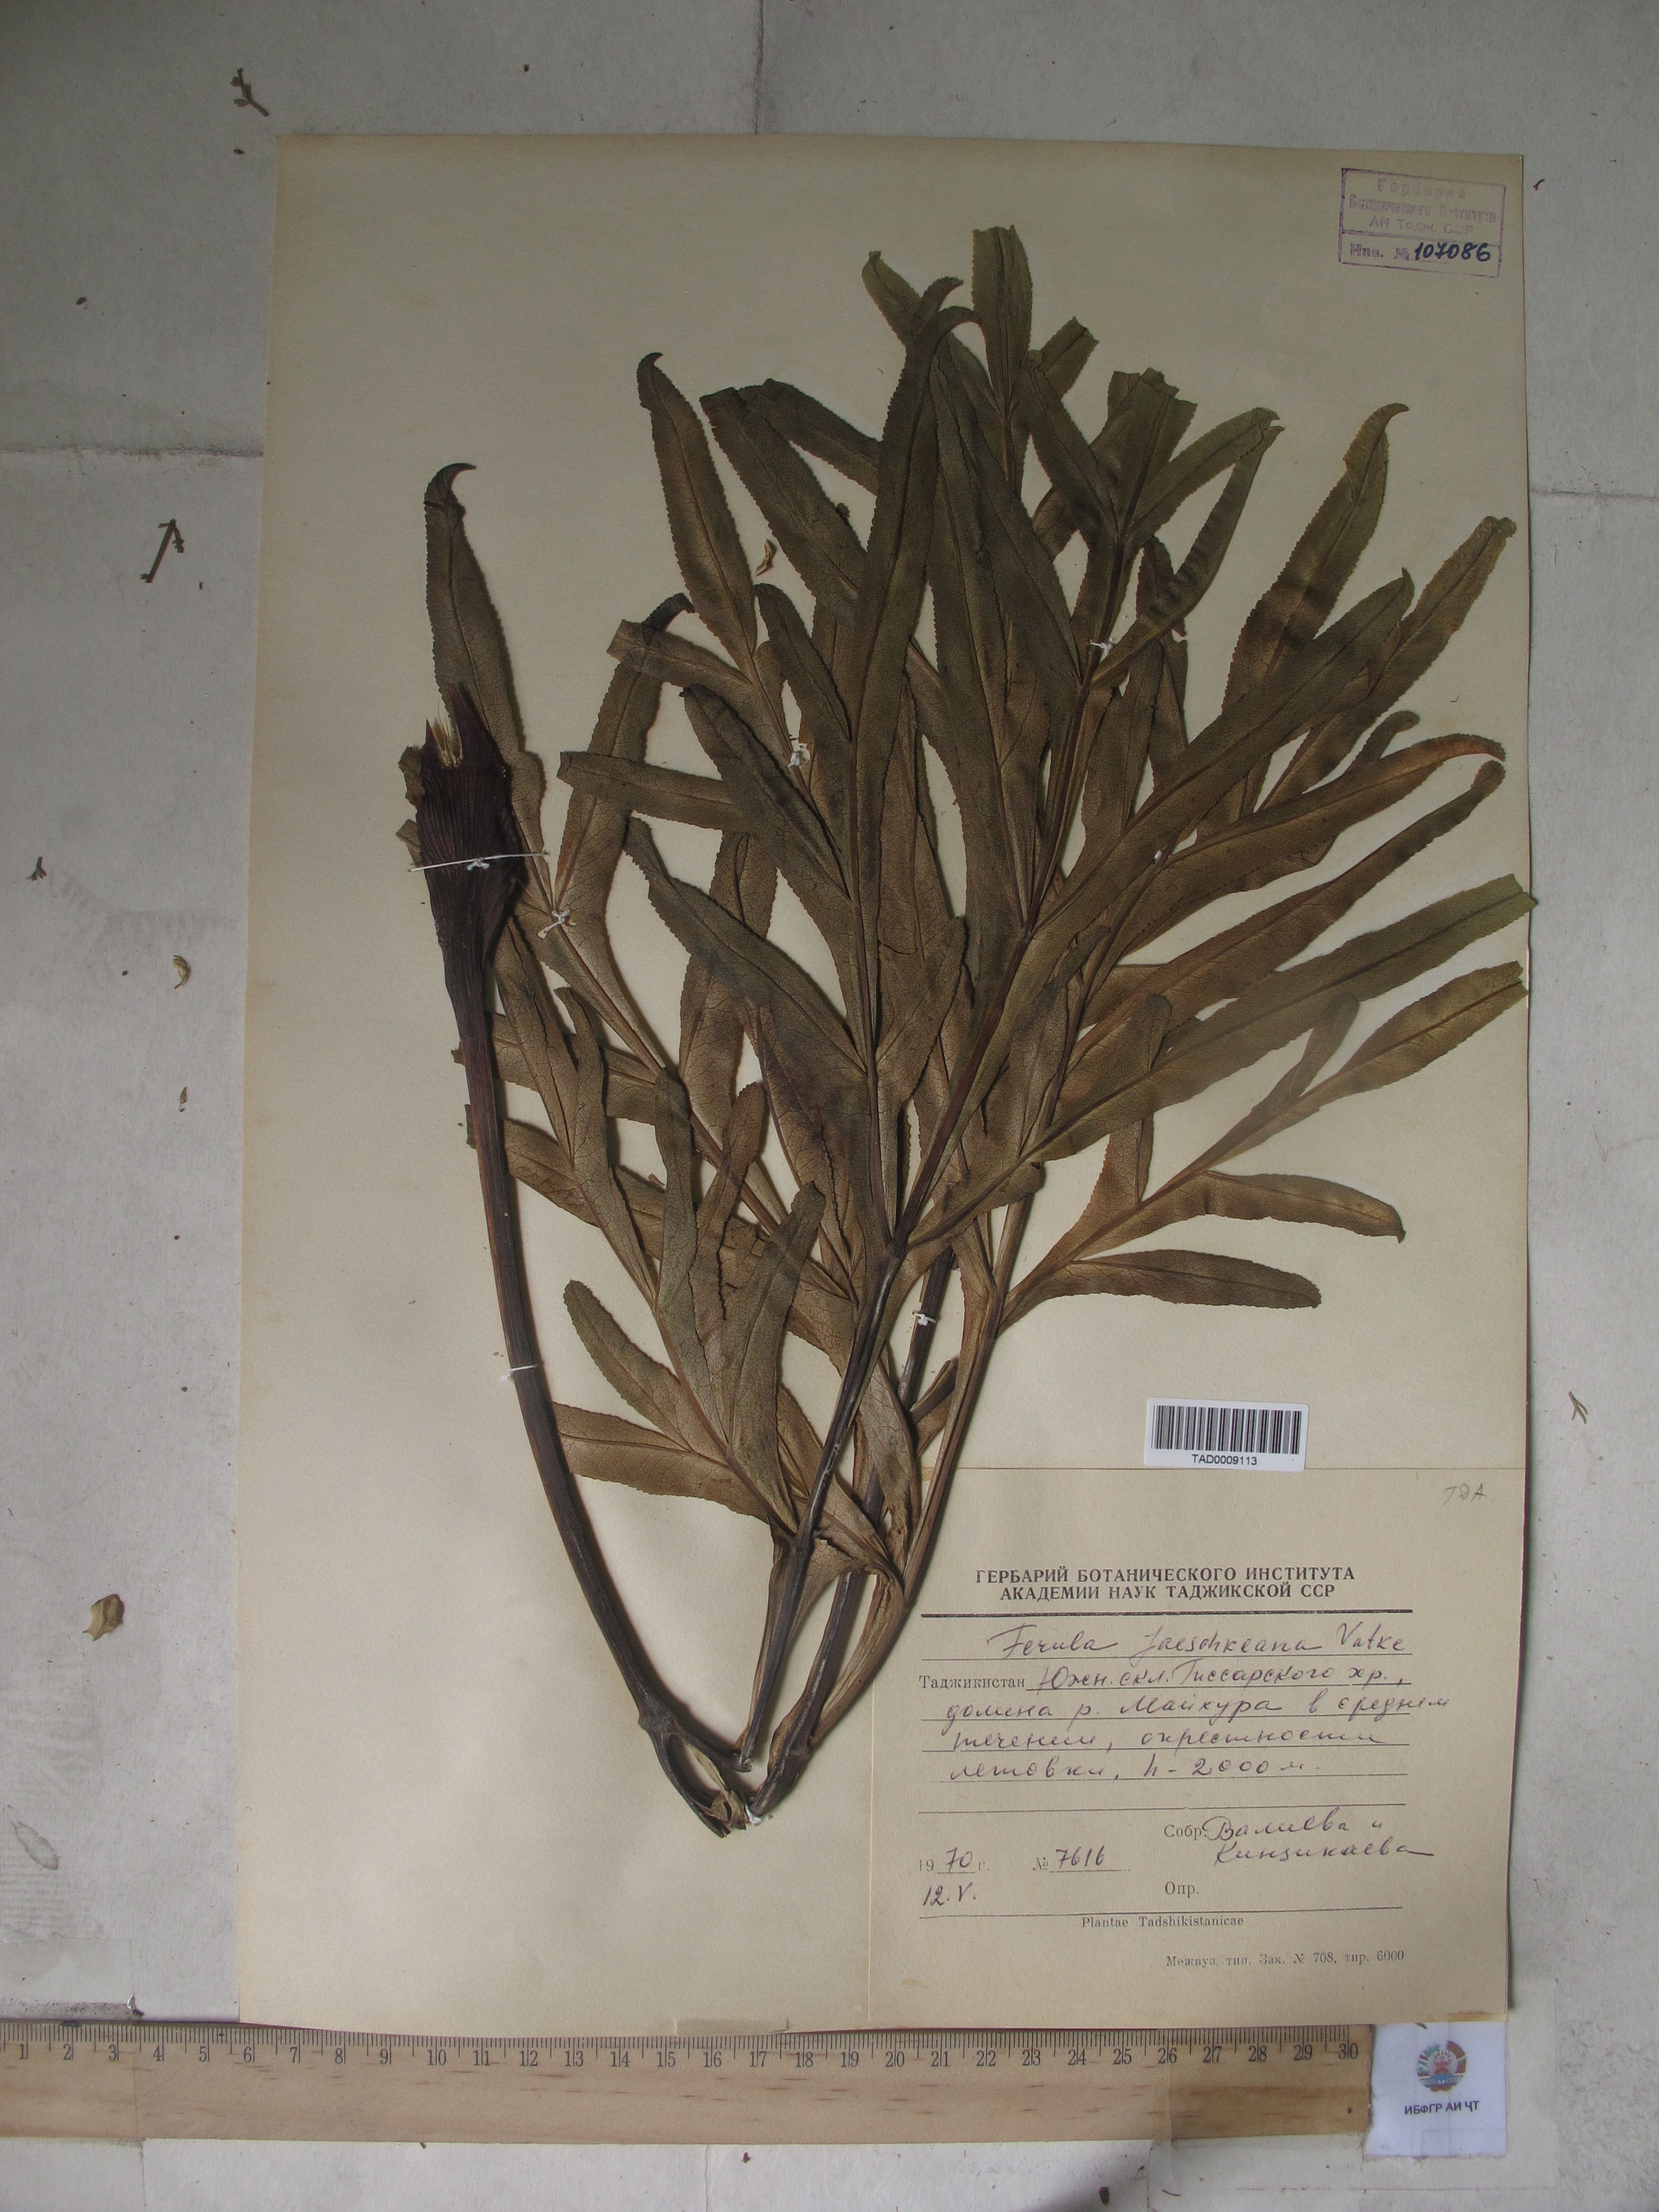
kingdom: Plantae
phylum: Tracheophyta
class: Magnoliopsida
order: Apiales
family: Apiaceae
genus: Ferula
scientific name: Ferula jaeschkeana
